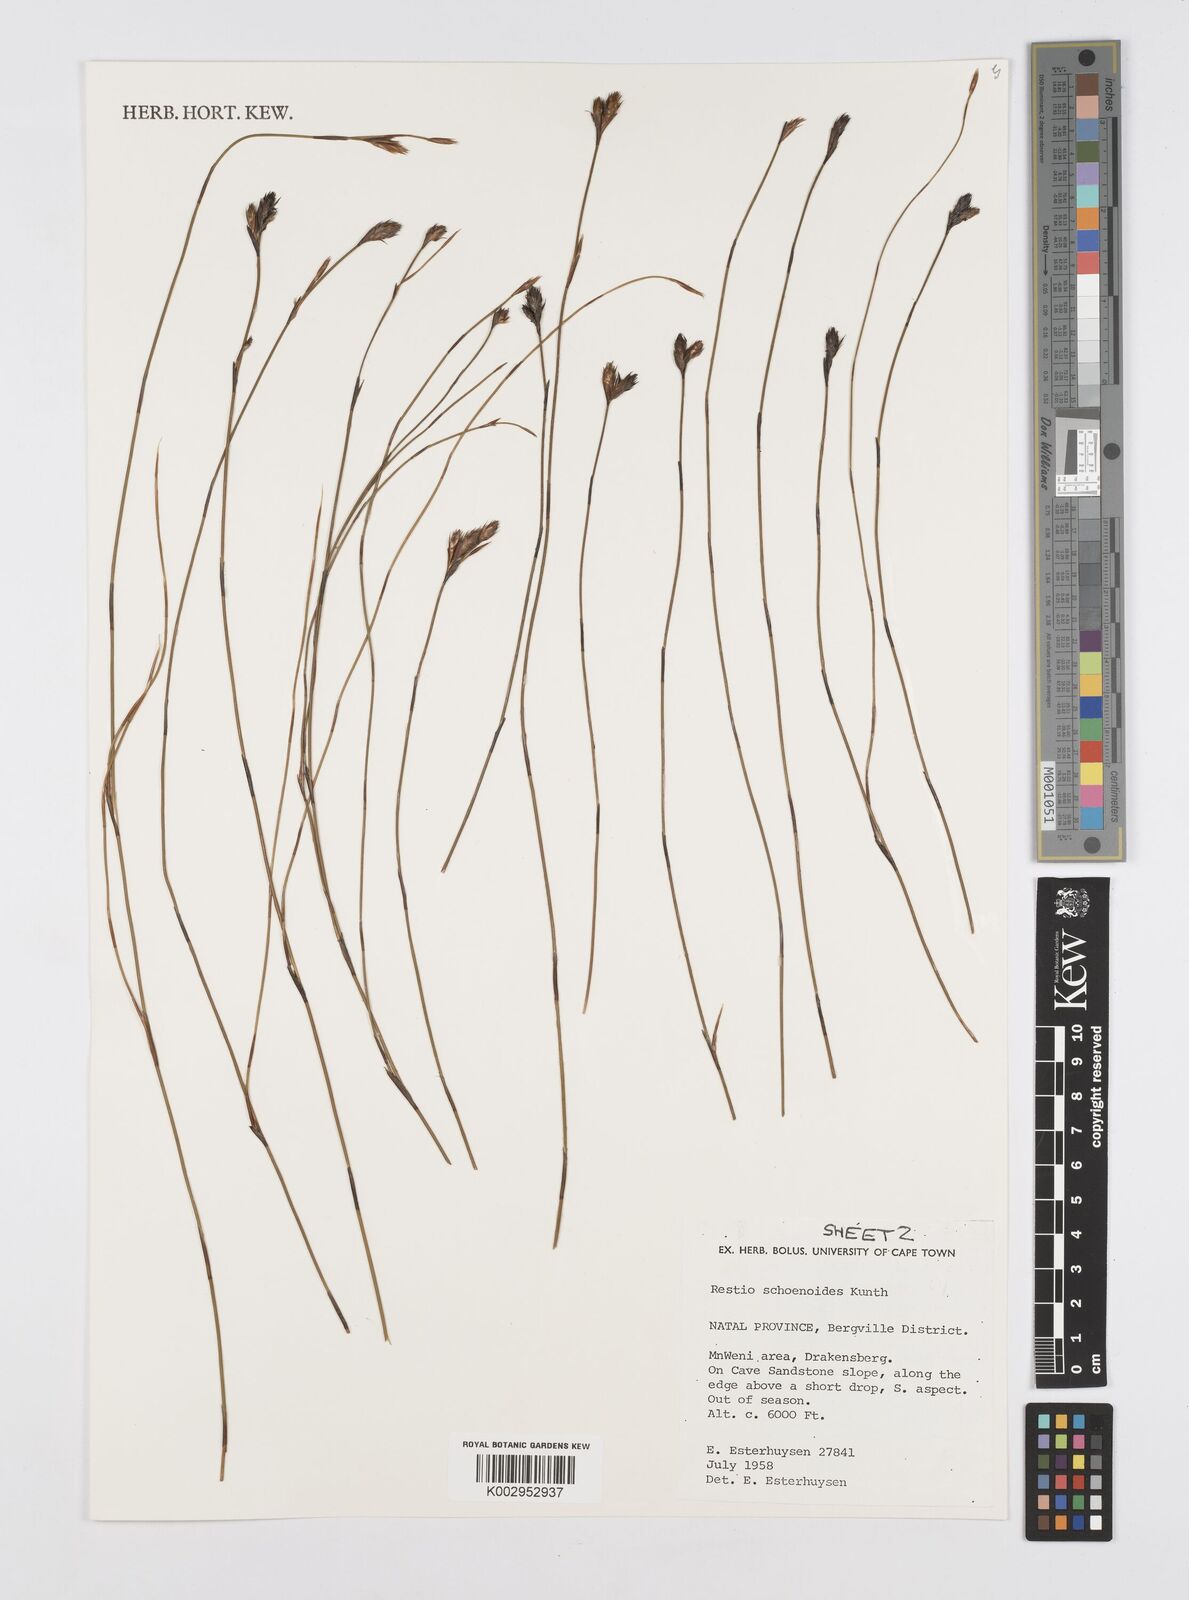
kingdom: Plantae
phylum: Tracheophyta
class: Liliopsida
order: Poales
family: Restionaceae
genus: Restio
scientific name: Restio schoenoides
